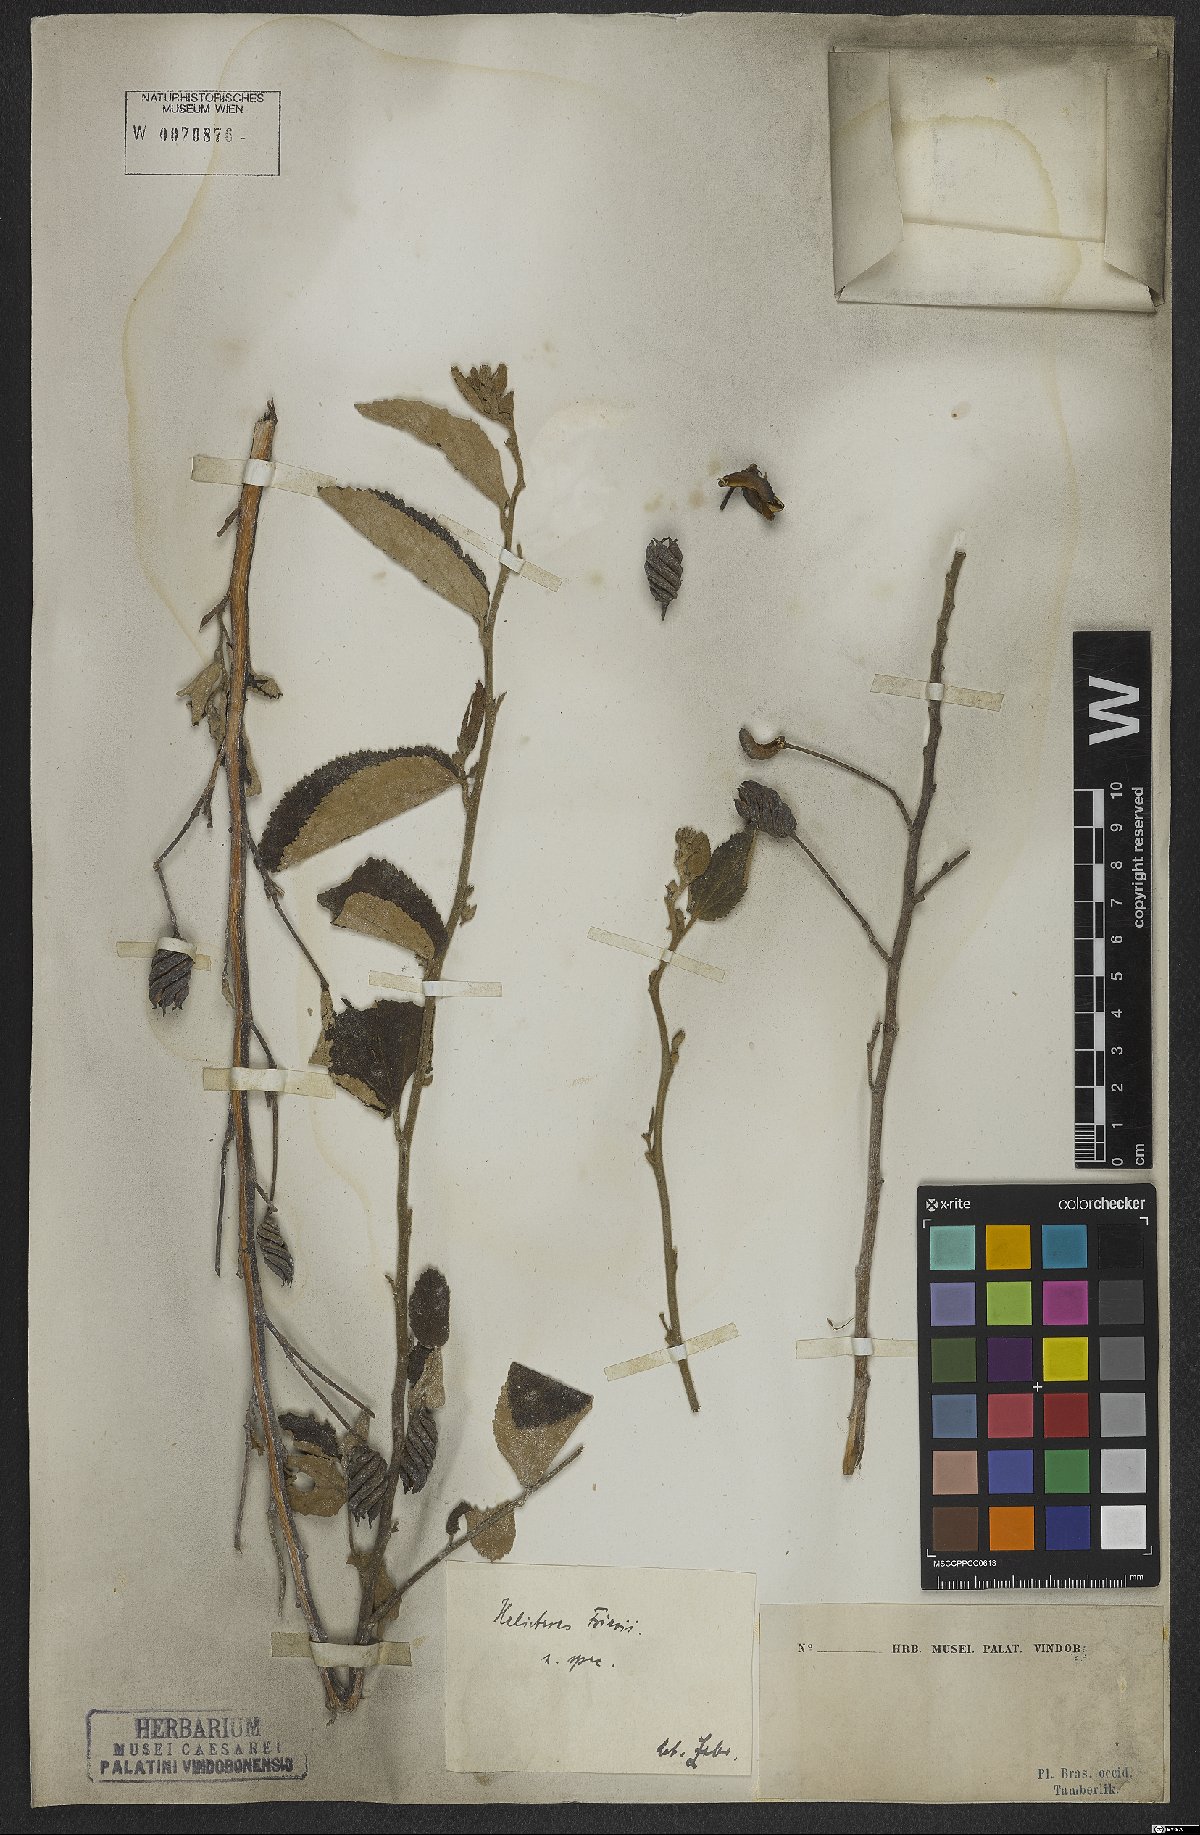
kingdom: Plantae
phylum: Tracheophyta
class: Magnoliopsida
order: Malvales
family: Malvaceae
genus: Helicteres
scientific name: Helicteres friesii
